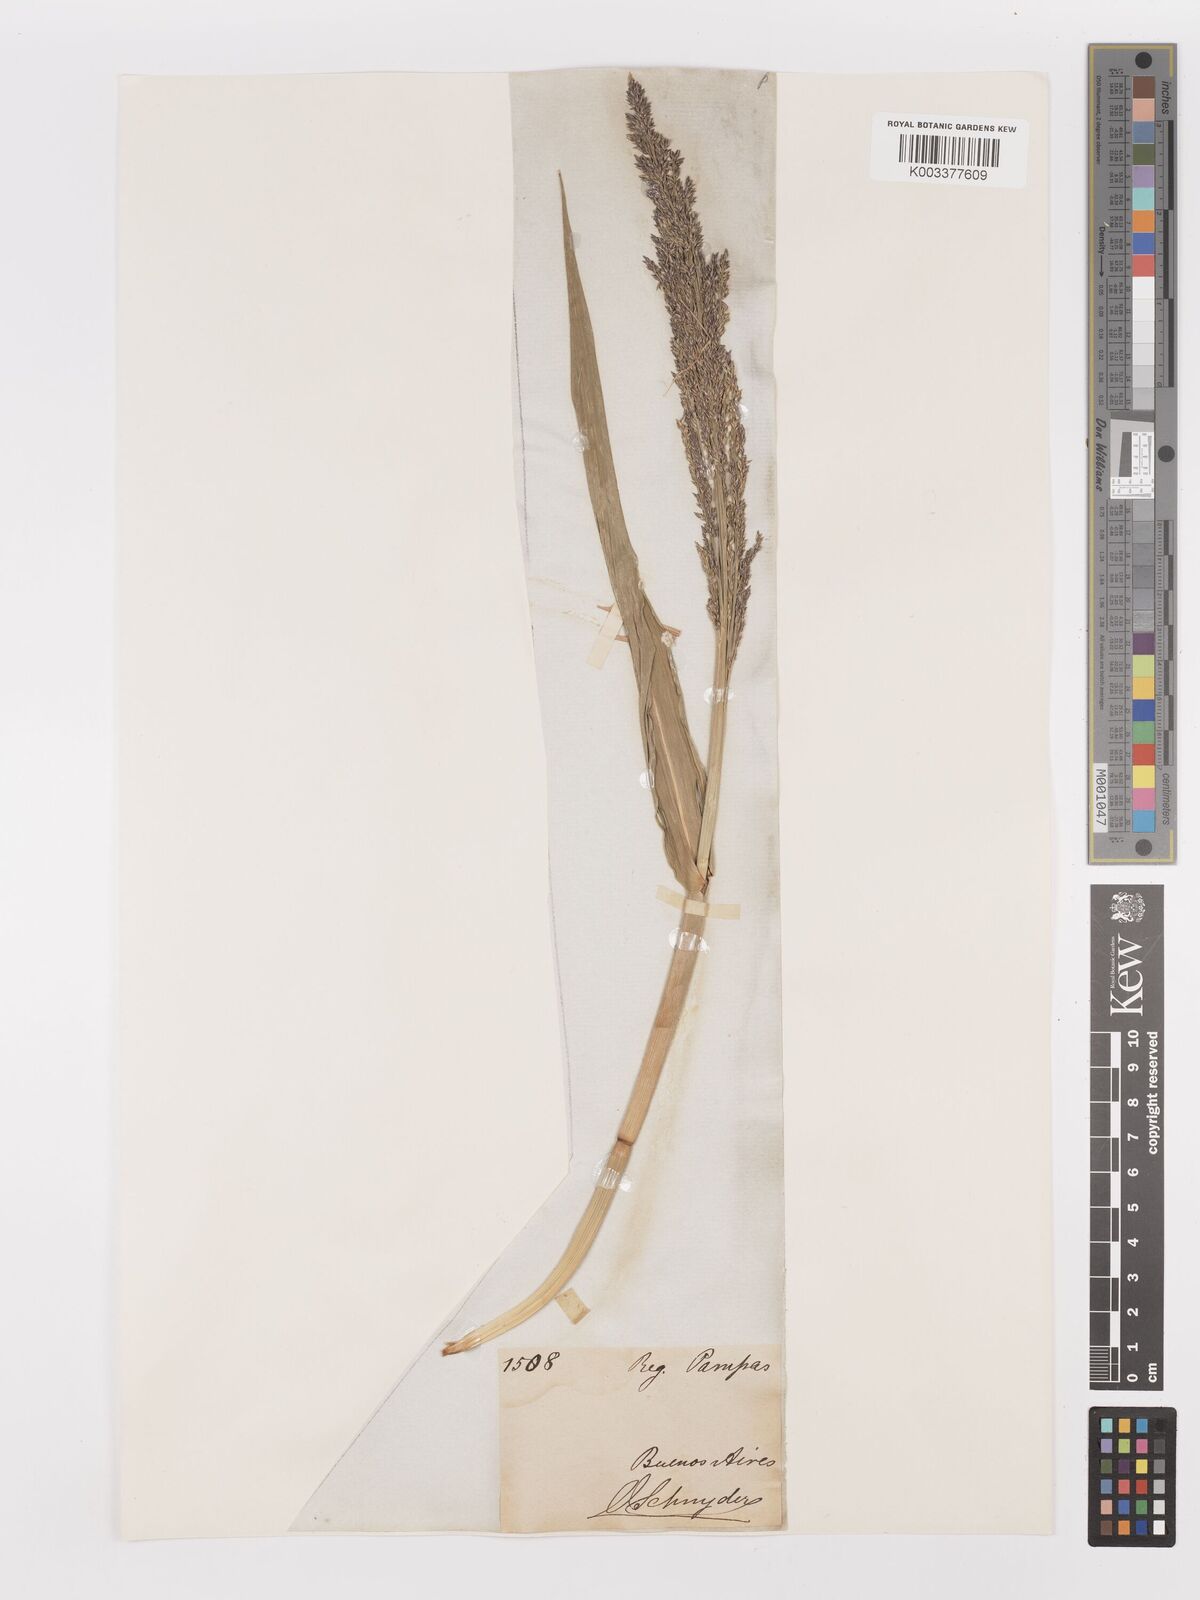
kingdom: Plantae
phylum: Tracheophyta
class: Liliopsida
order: Poales
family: Poaceae
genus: Hymenachne
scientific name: Hymenachne pernambucensis
